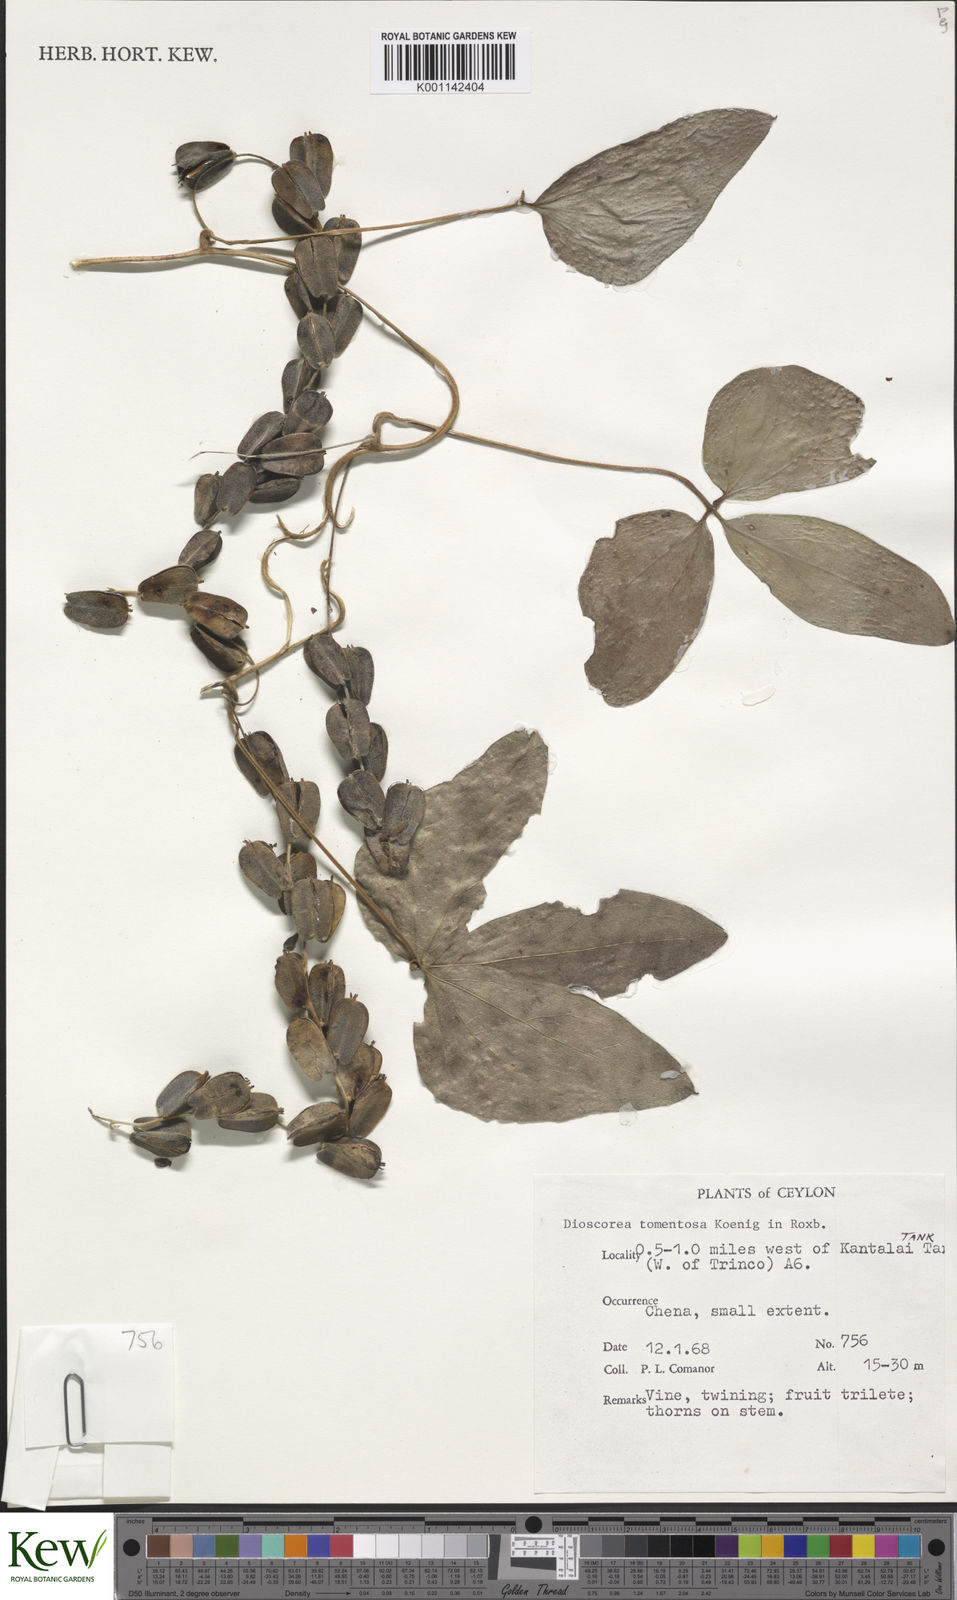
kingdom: Plantae
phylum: Tracheophyta
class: Liliopsida
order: Dioscoreales
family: Dioscoreaceae
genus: Dioscorea
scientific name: Dioscorea
